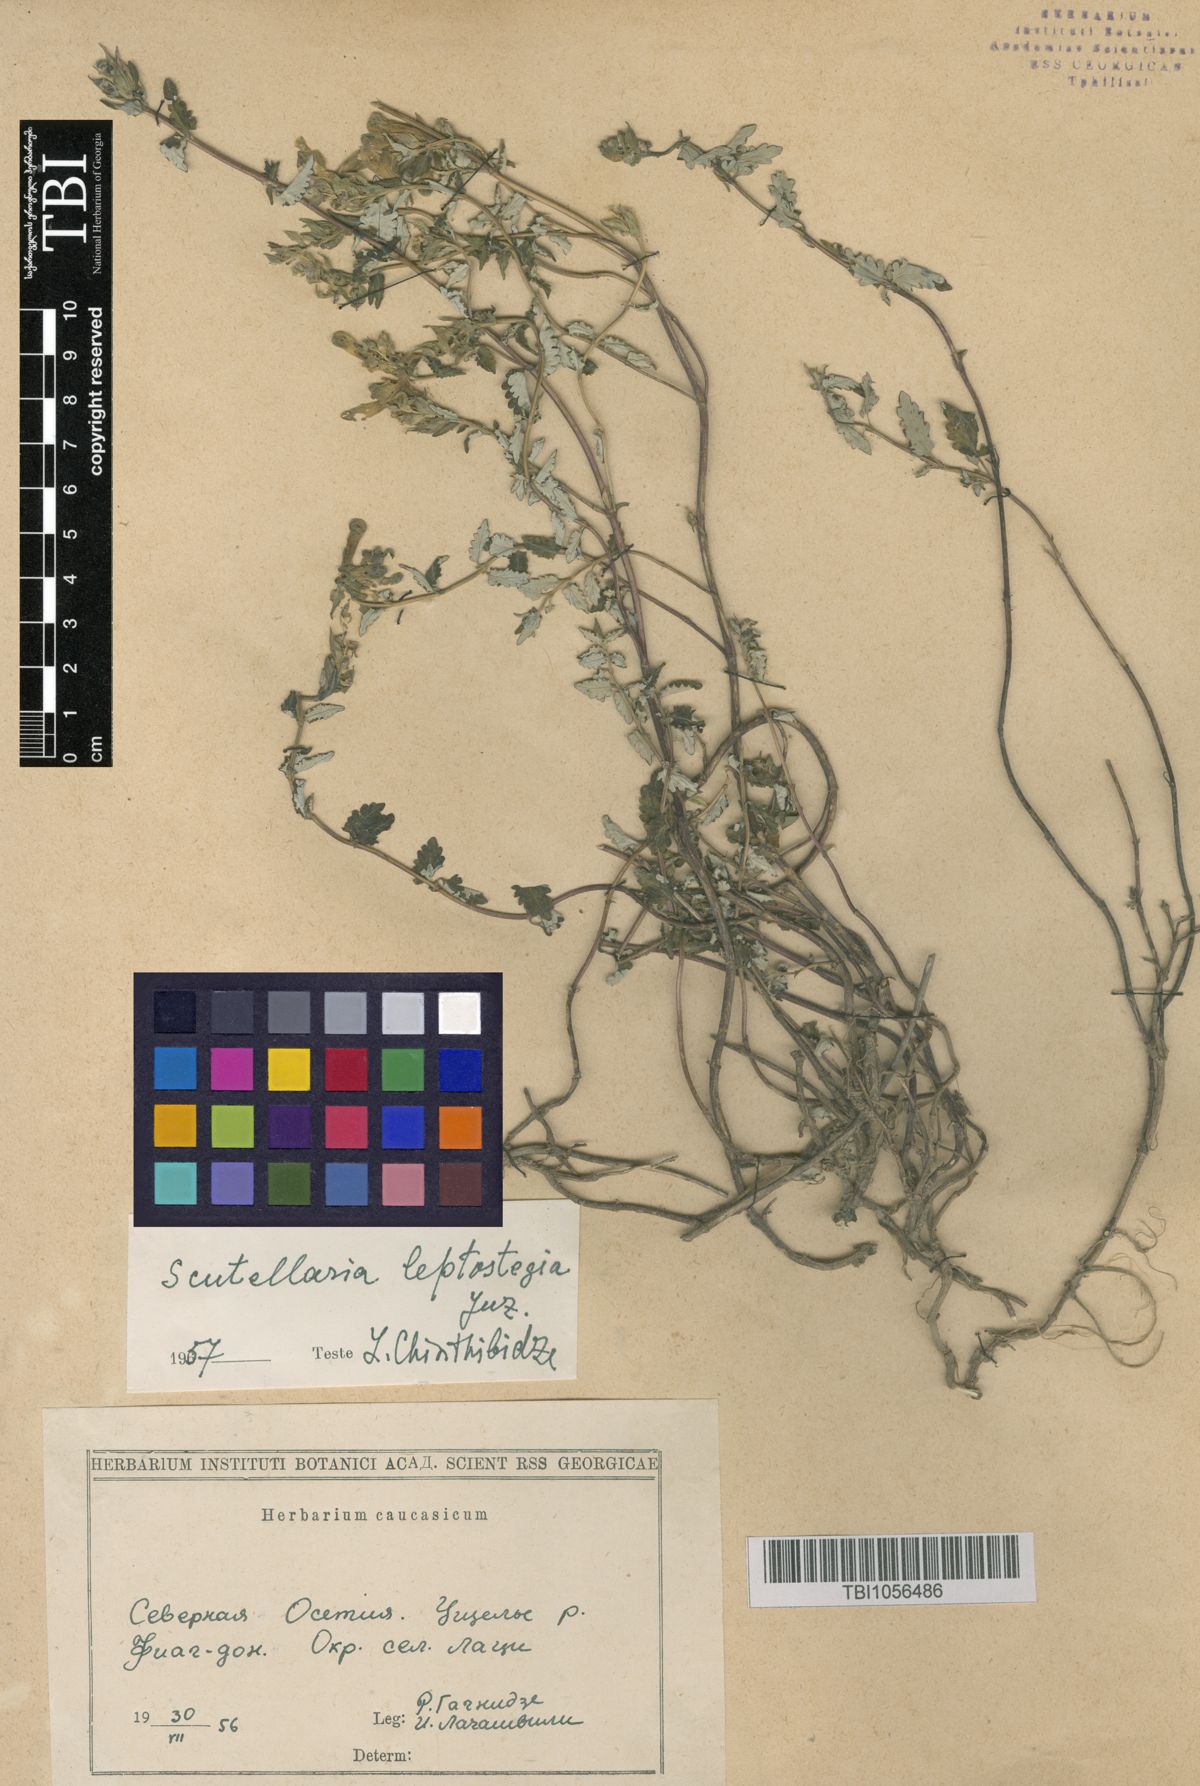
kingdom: Plantae
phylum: Tracheophyta
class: Magnoliopsida
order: Lamiales
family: Lamiaceae
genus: Scutellaria
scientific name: Scutellaria leptostegia
